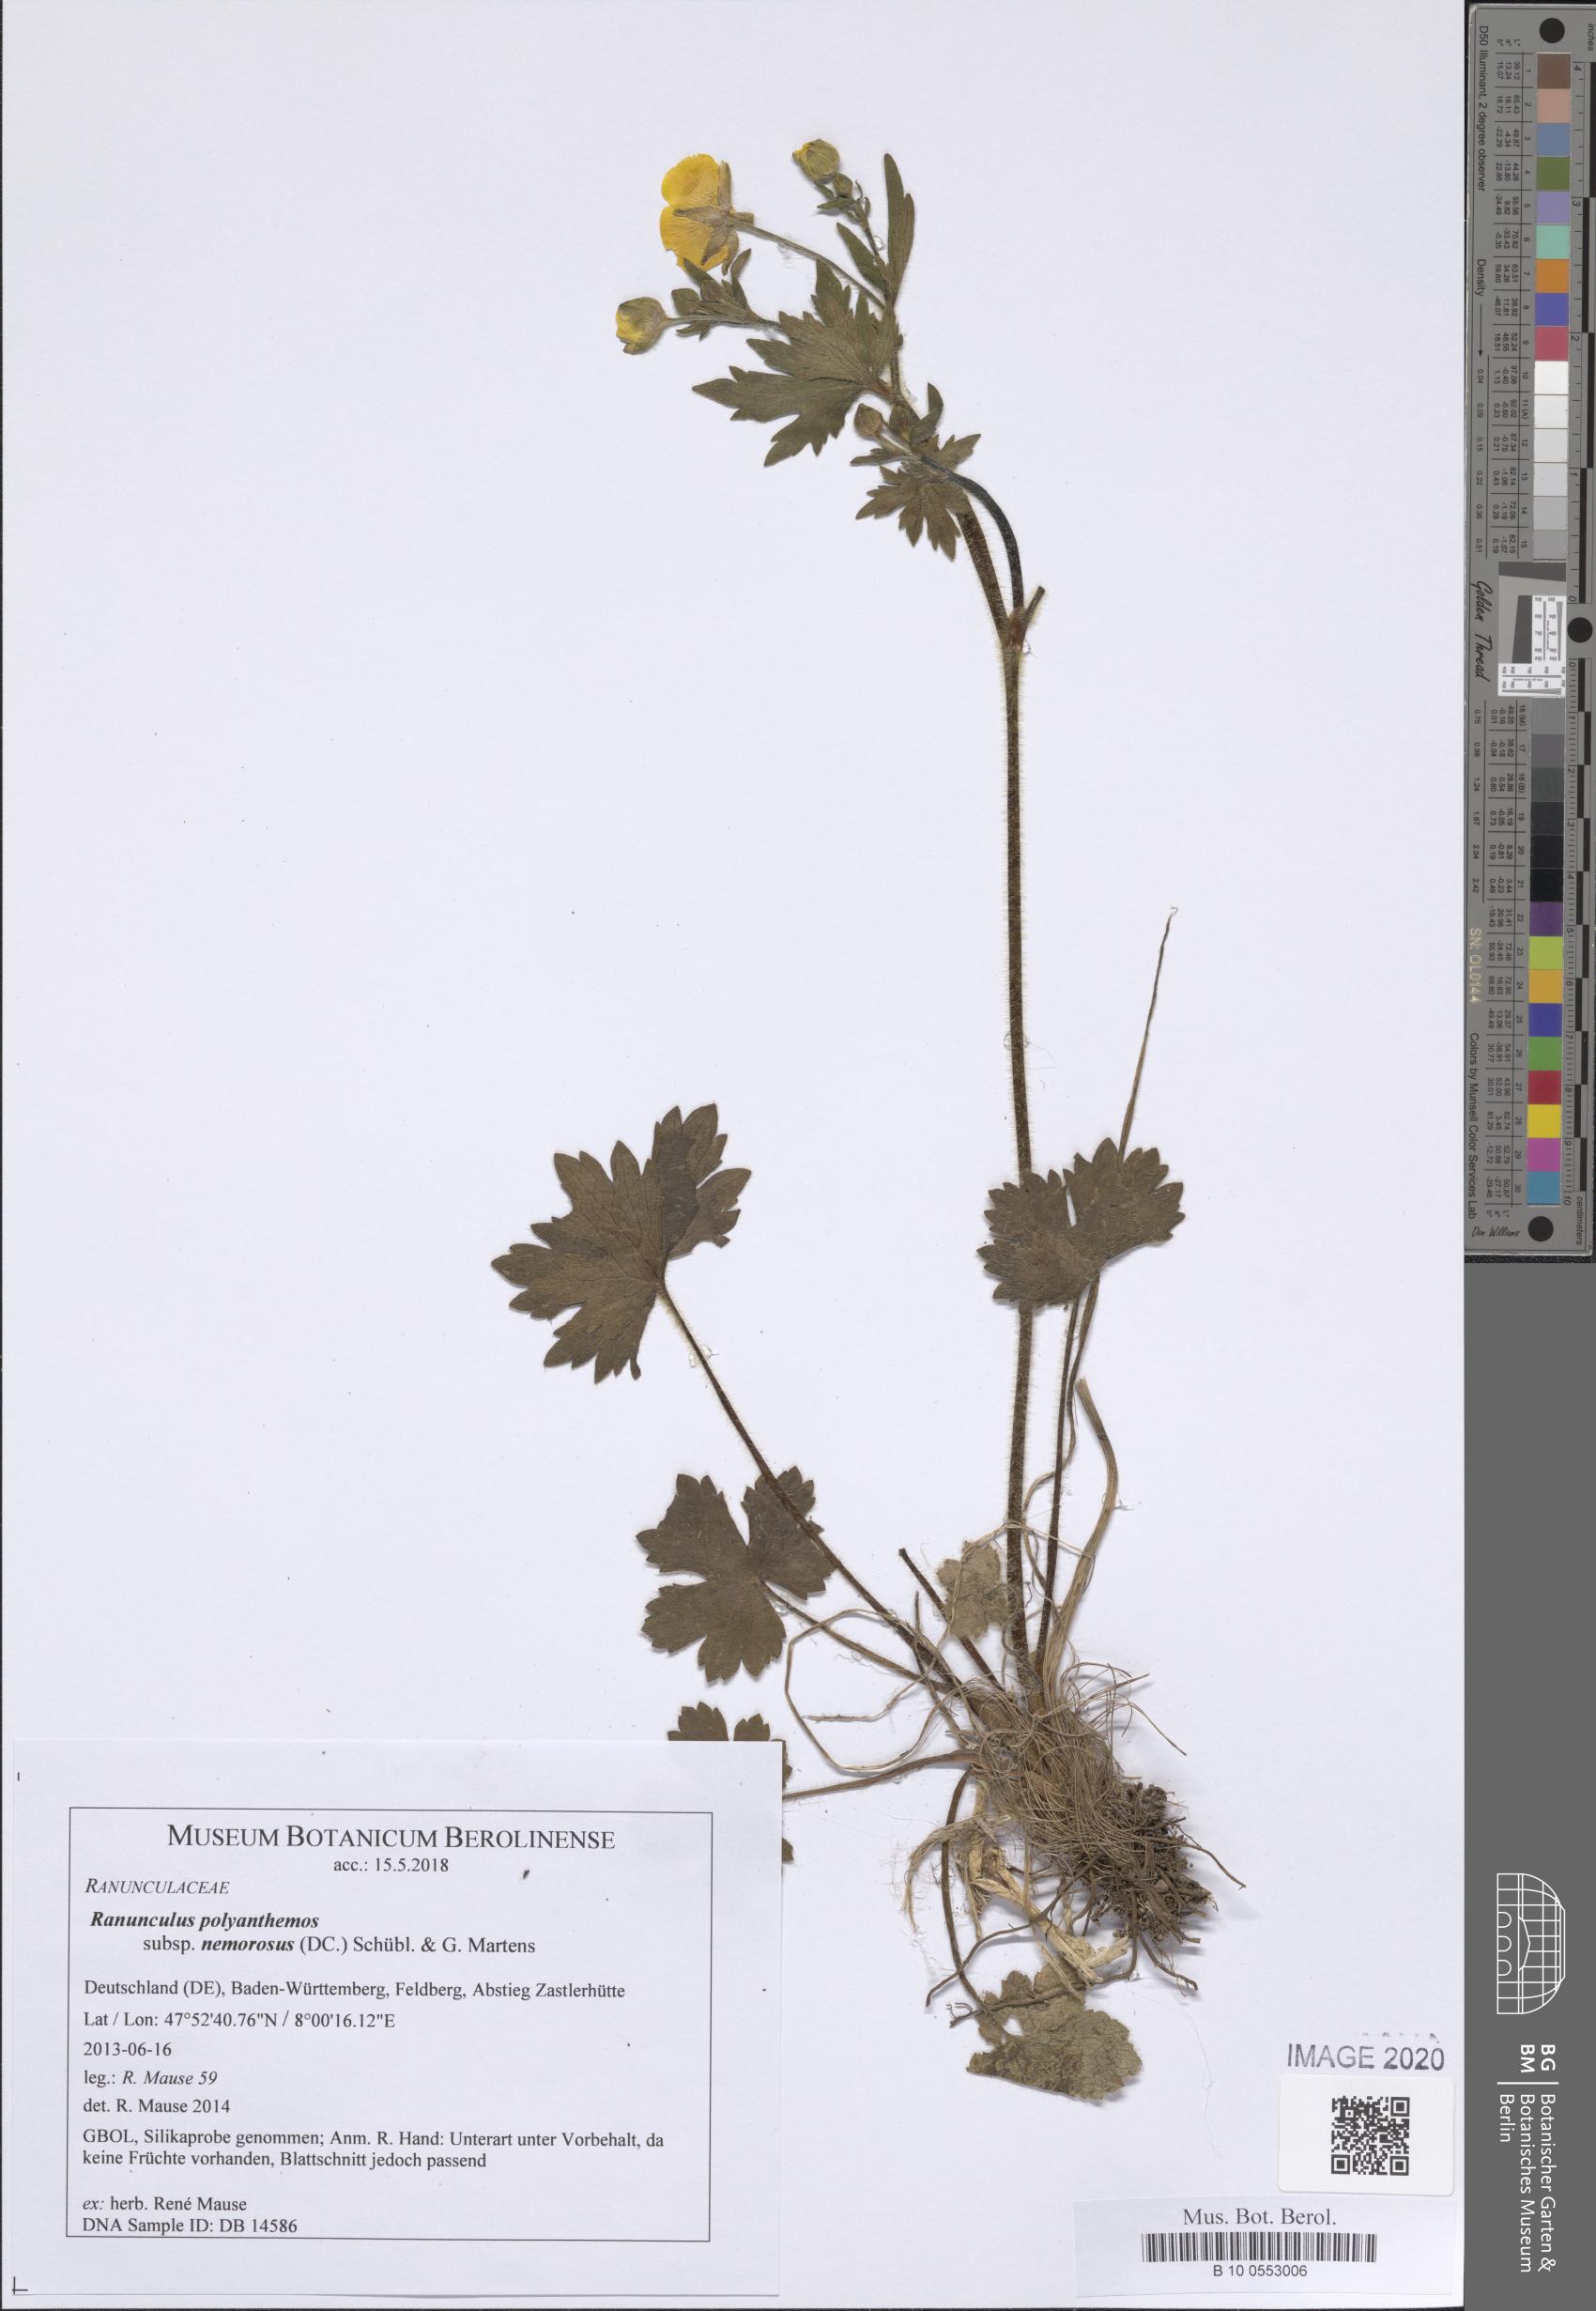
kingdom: Plantae
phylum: Tracheophyta
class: Magnoliopsida
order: Ranunculales
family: Ranunculaceae
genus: Ranunculus
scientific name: Ranunculus polyanthemos
